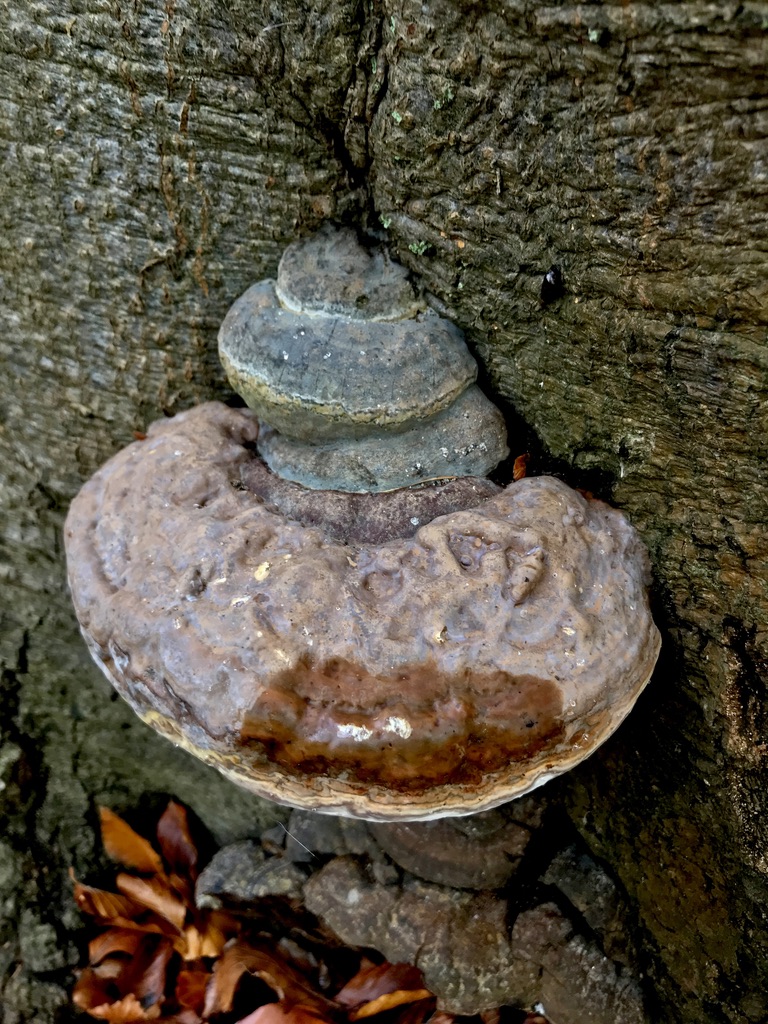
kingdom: Fungi
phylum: Basidiomycota
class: Agaricomycetes
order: Polyporales
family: Polyporaceae
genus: Ganoderma
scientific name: Ganoderma pfeifferi
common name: kobberrød lakporesvamp
